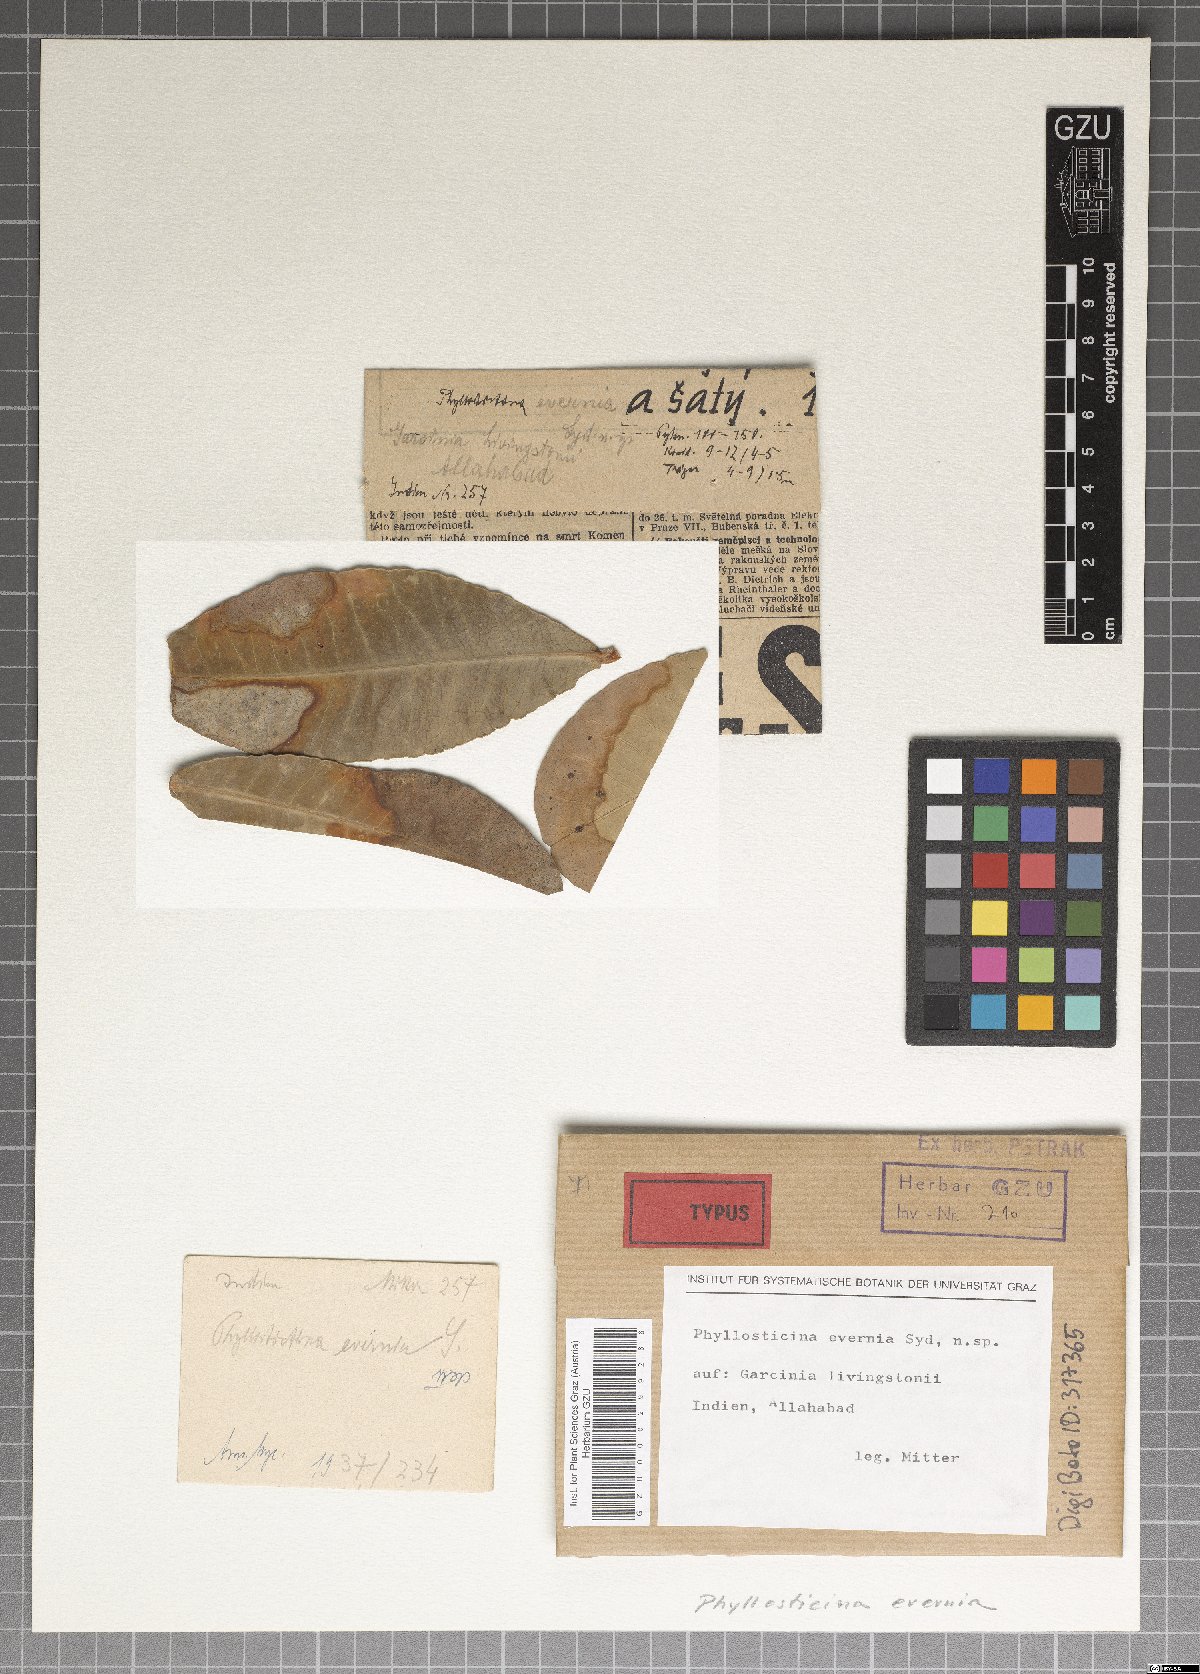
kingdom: Fungi
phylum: Ascomycota
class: Dothideomycetes
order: Botryosphaeriales
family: Phyllostictaceae
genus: Phyllosticta
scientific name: Phyllosticta evernia
